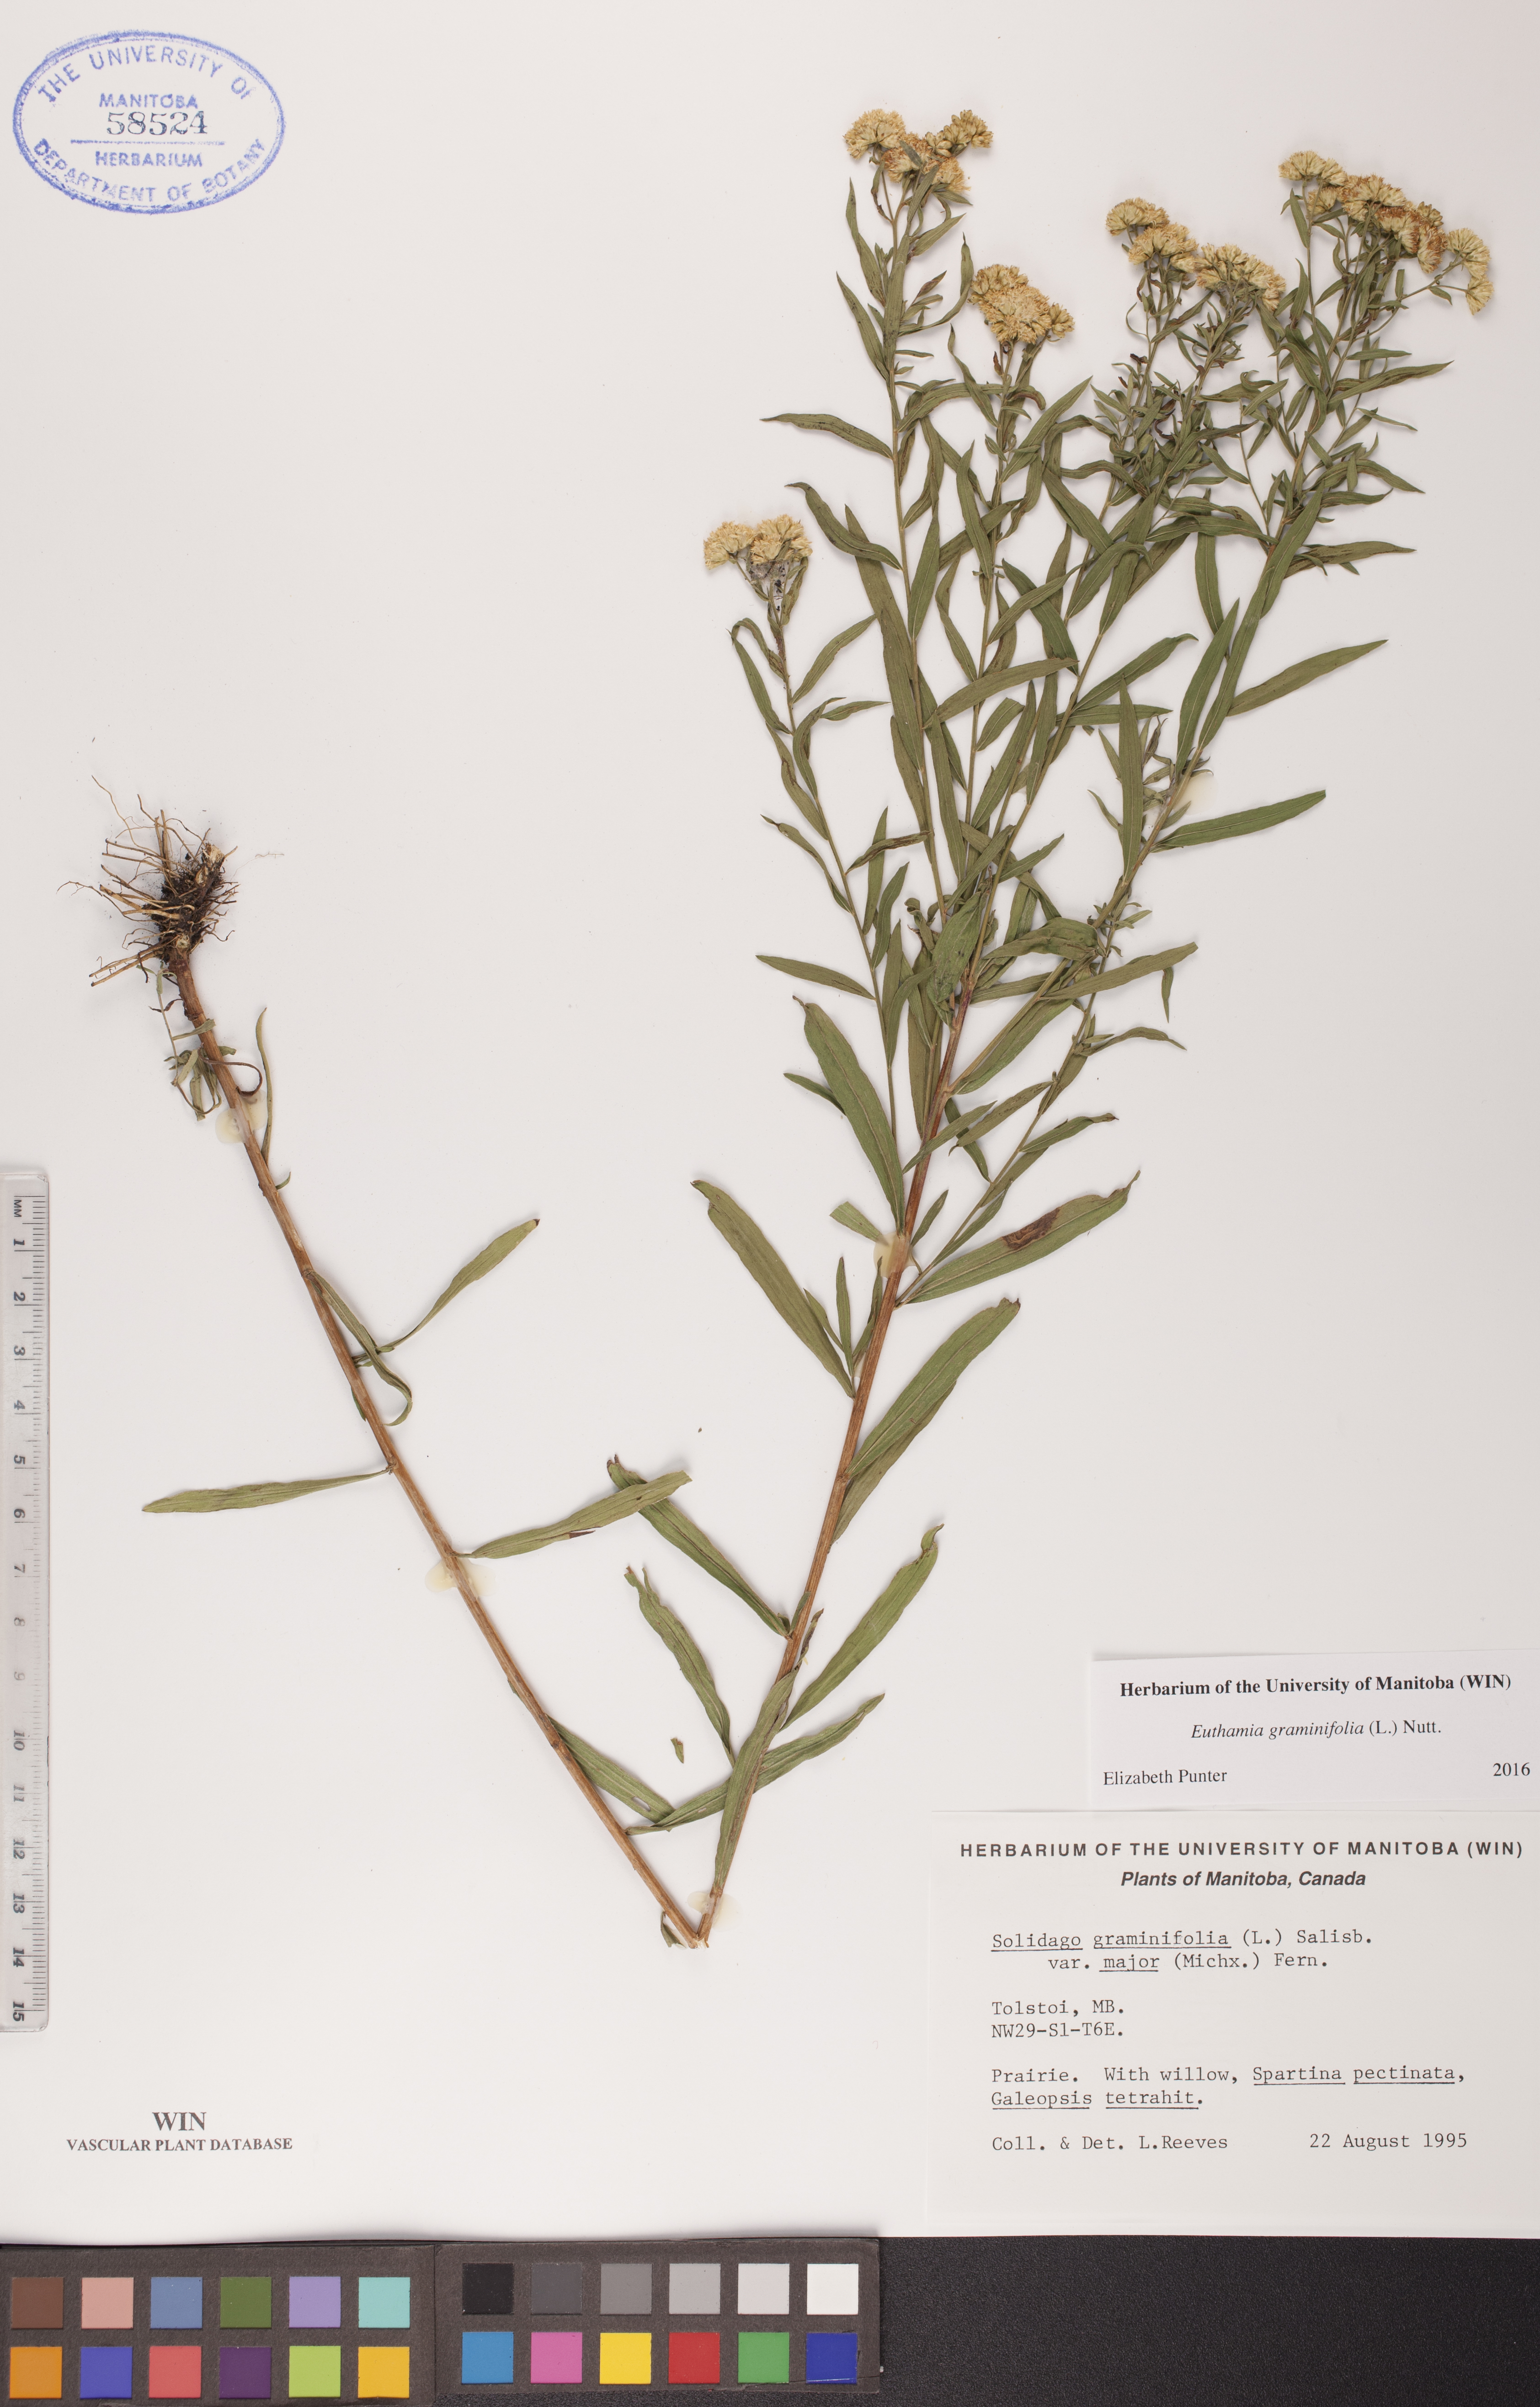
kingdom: Plantae
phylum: Tracheophyta
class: Magnoliopsida
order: Asterales
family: Asteraceae
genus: Euthamia
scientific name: Euthamia graminifolia
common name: Common goldentop
